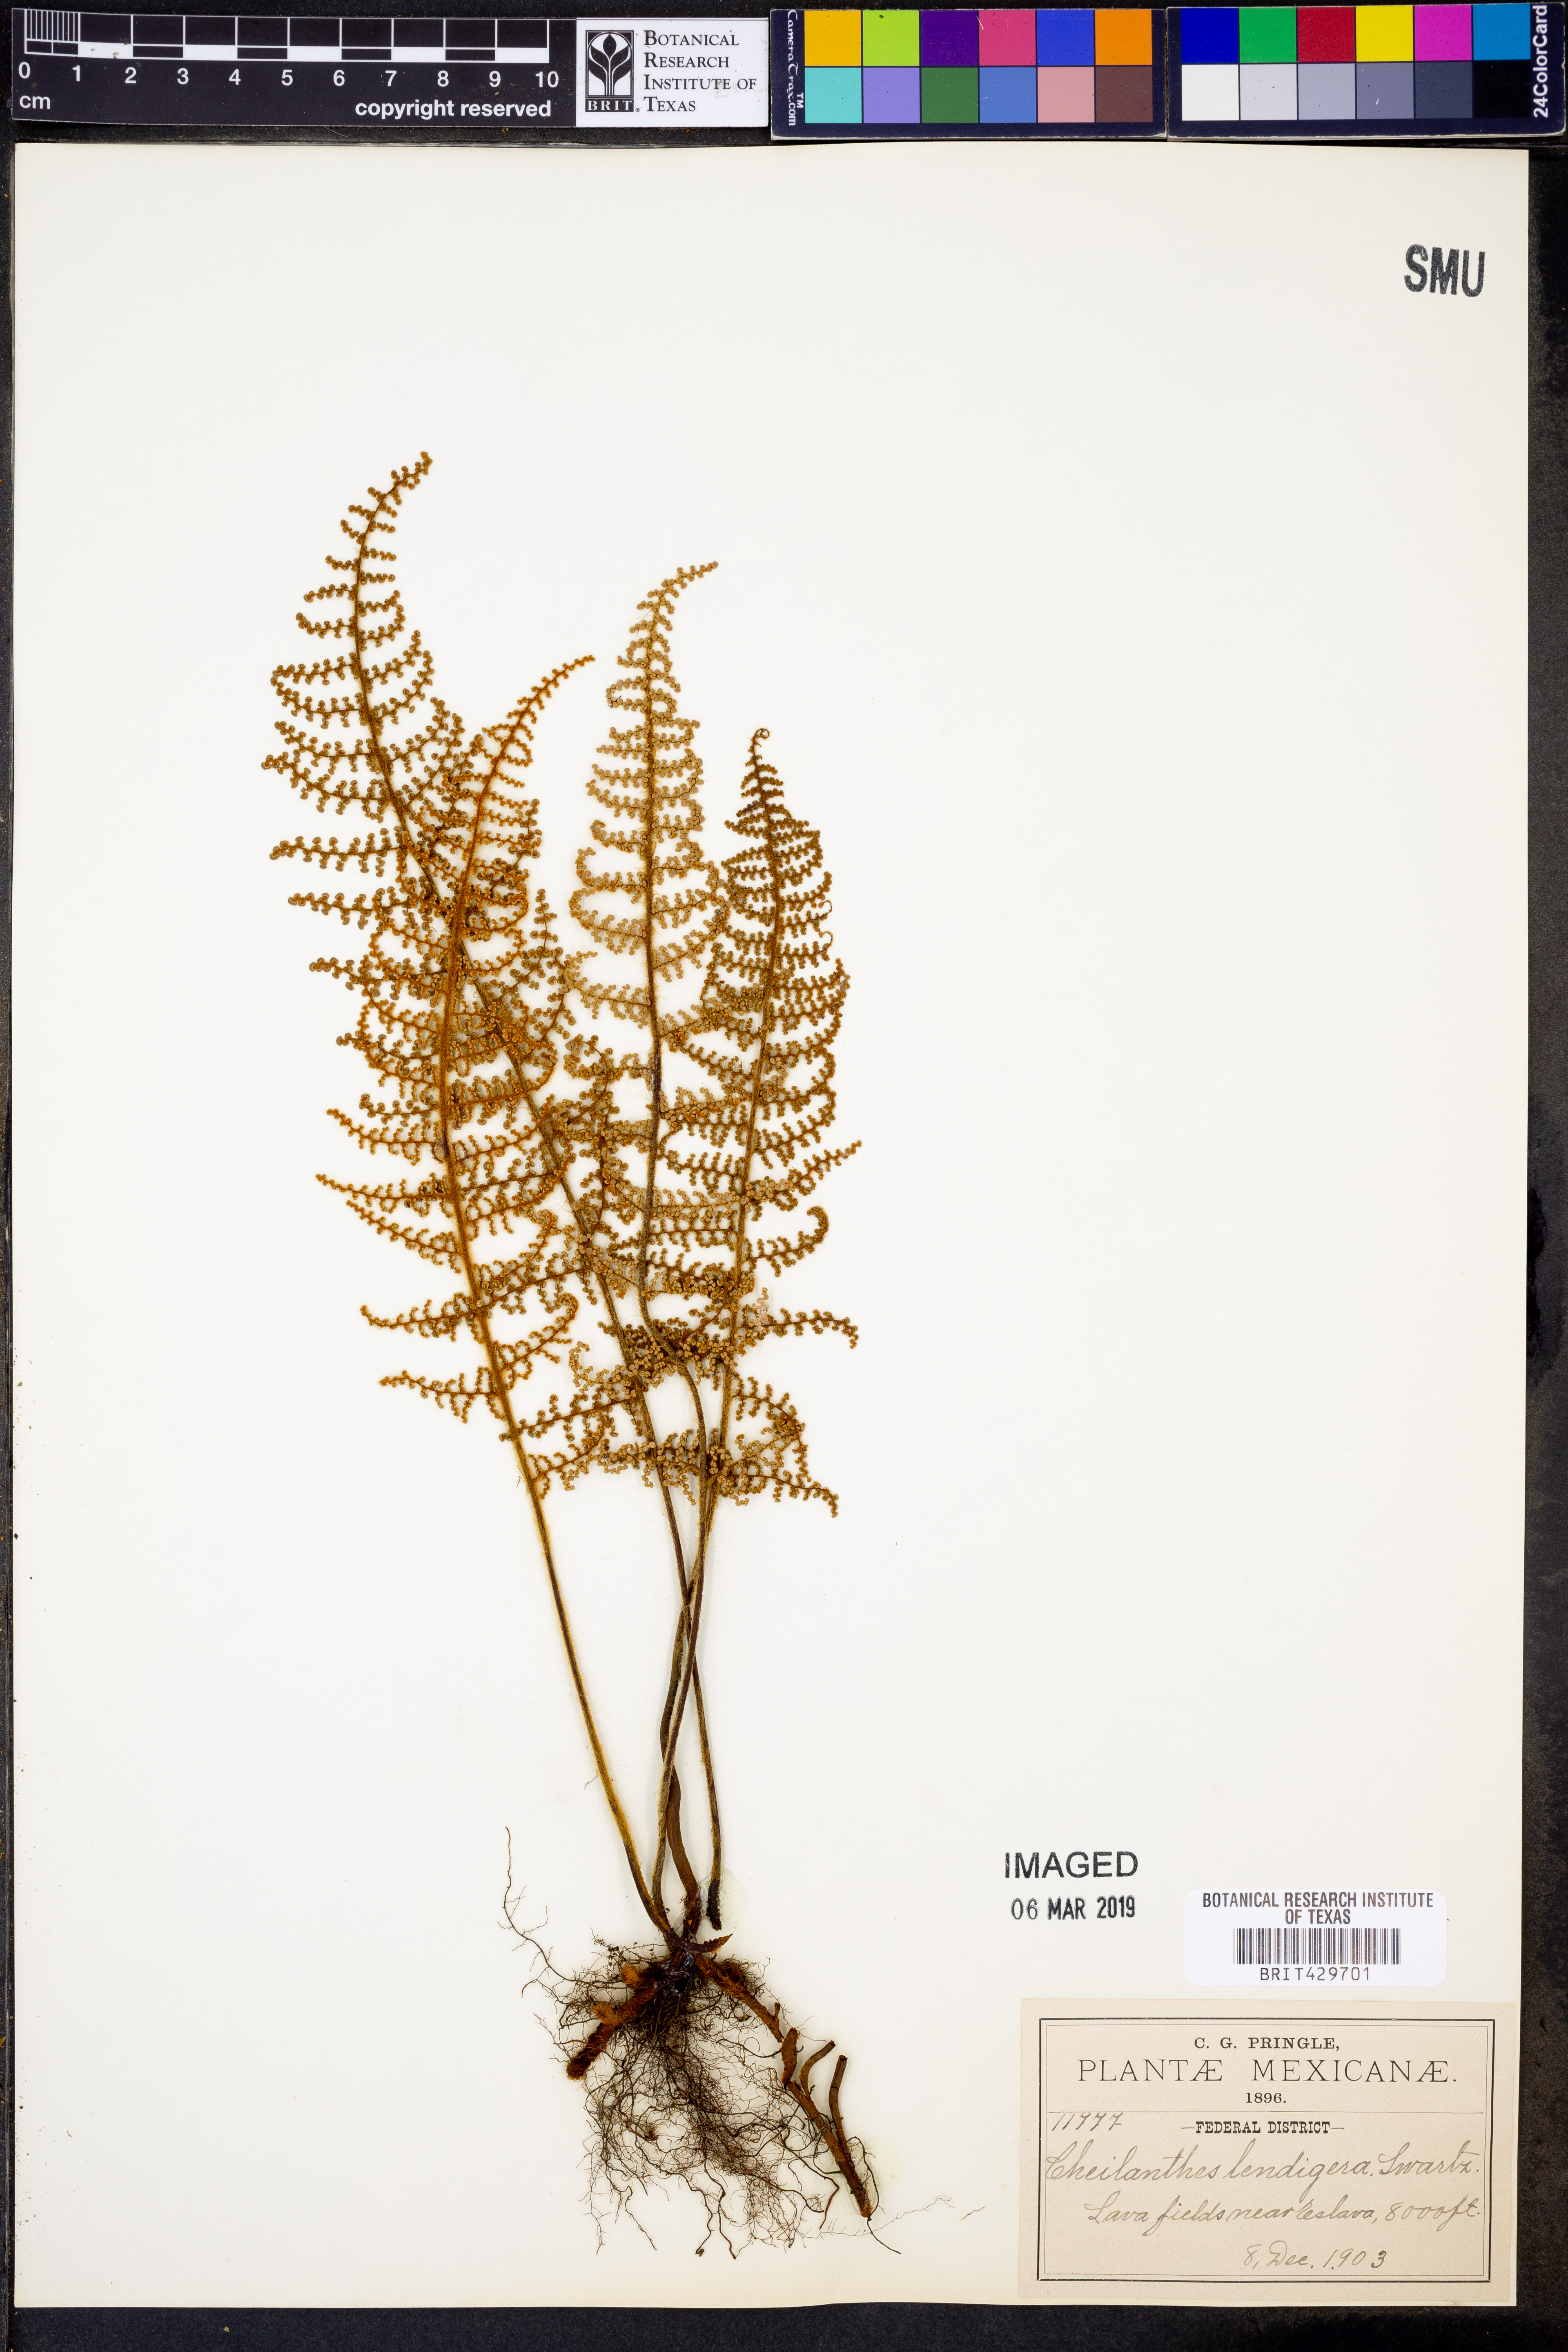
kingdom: Plantae
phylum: Tracheophyta
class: Polypodiopsida
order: Polypodiales
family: Pteridaceae
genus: Myriopteris
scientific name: Myriopteris lendigera
